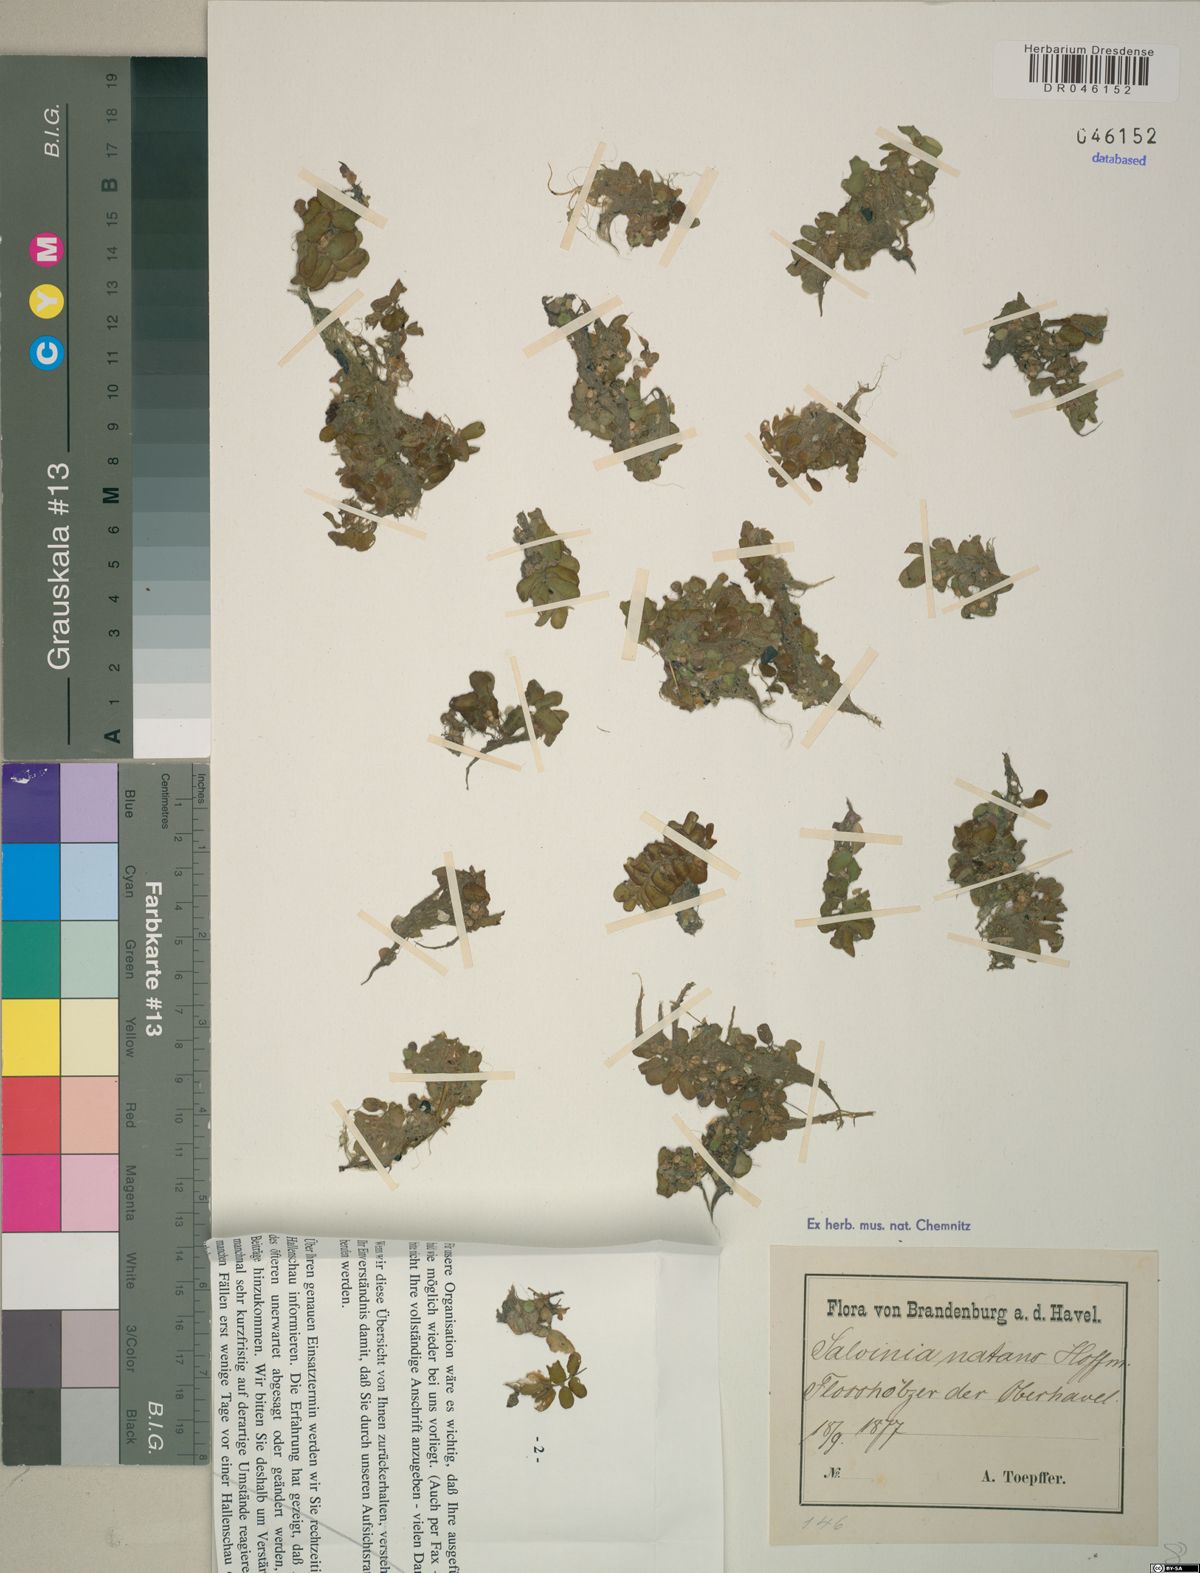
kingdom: Plantae
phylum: Tracheophyta
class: Polypodiopsida
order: Salviniales
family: Salviniaceae
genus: Salvinia
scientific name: Salvinia natans
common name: Floating fern
